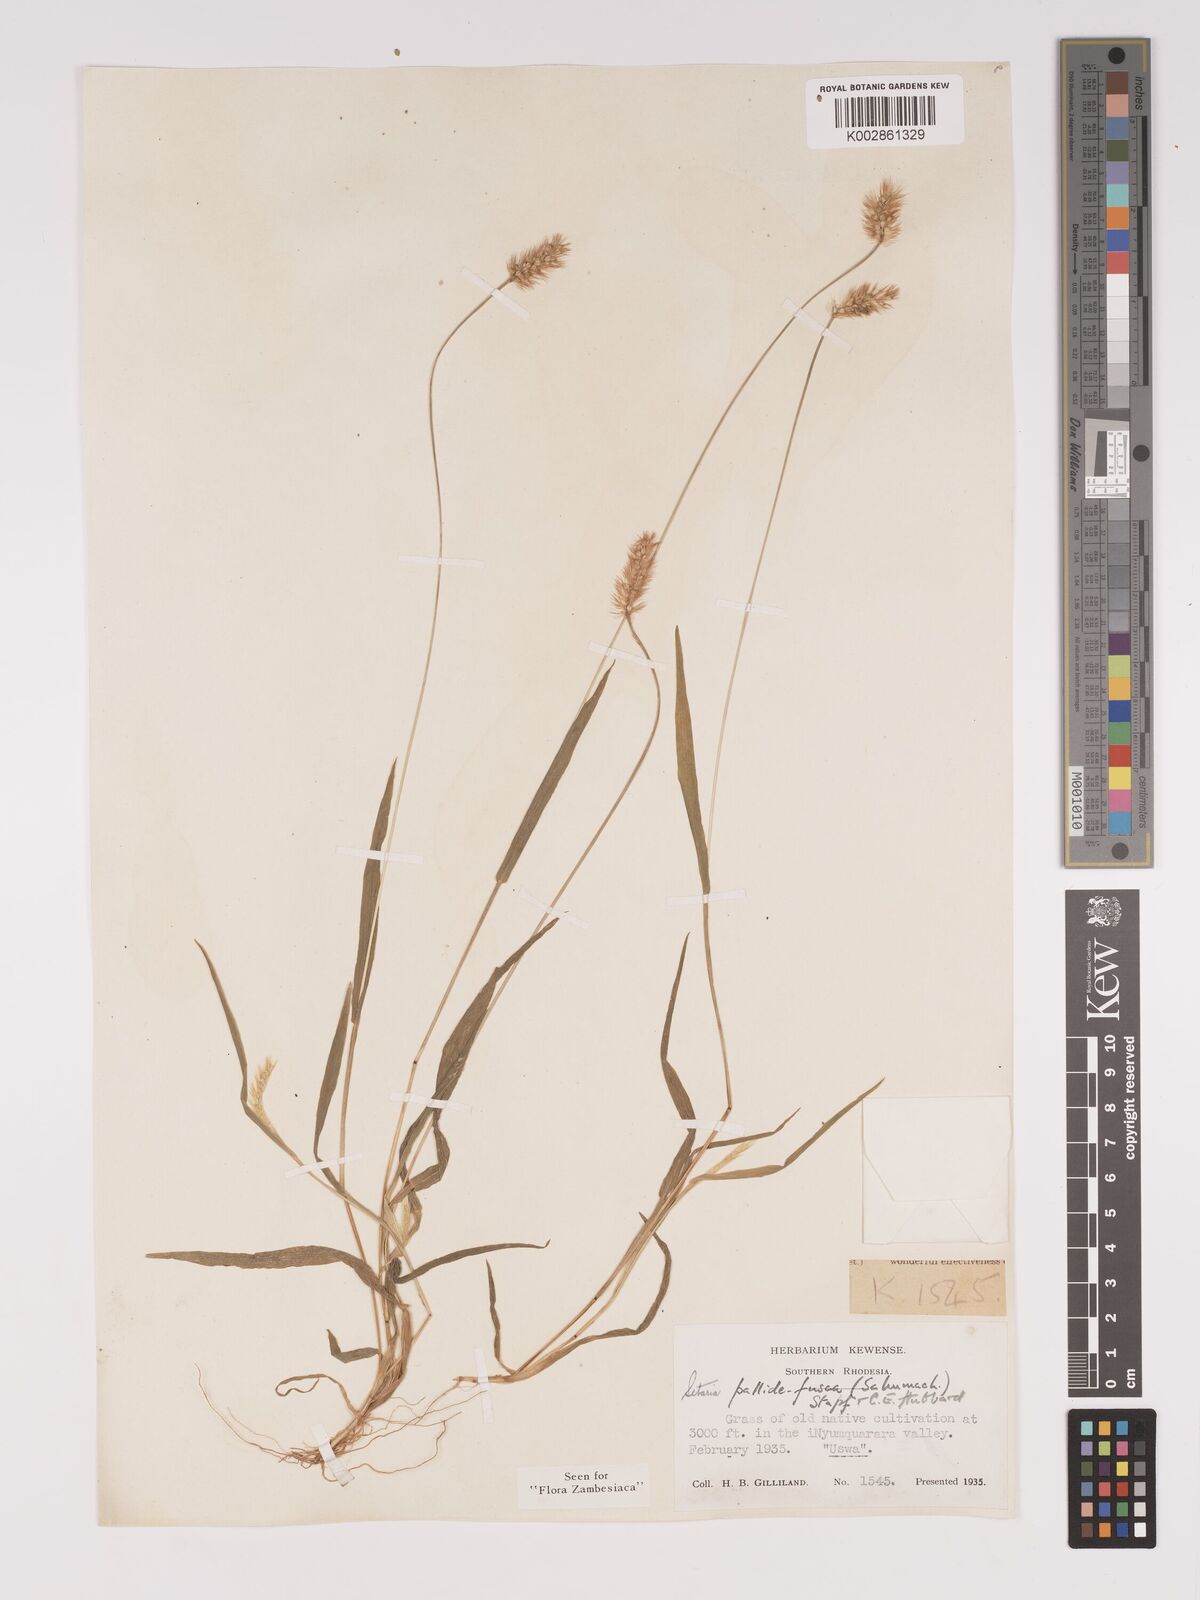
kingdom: Plantae
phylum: Tracheophyta
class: Liliopsida
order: Poales
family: Poaceae
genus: Setaria
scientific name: Setaria pumila
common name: Yellow bristle-grass
